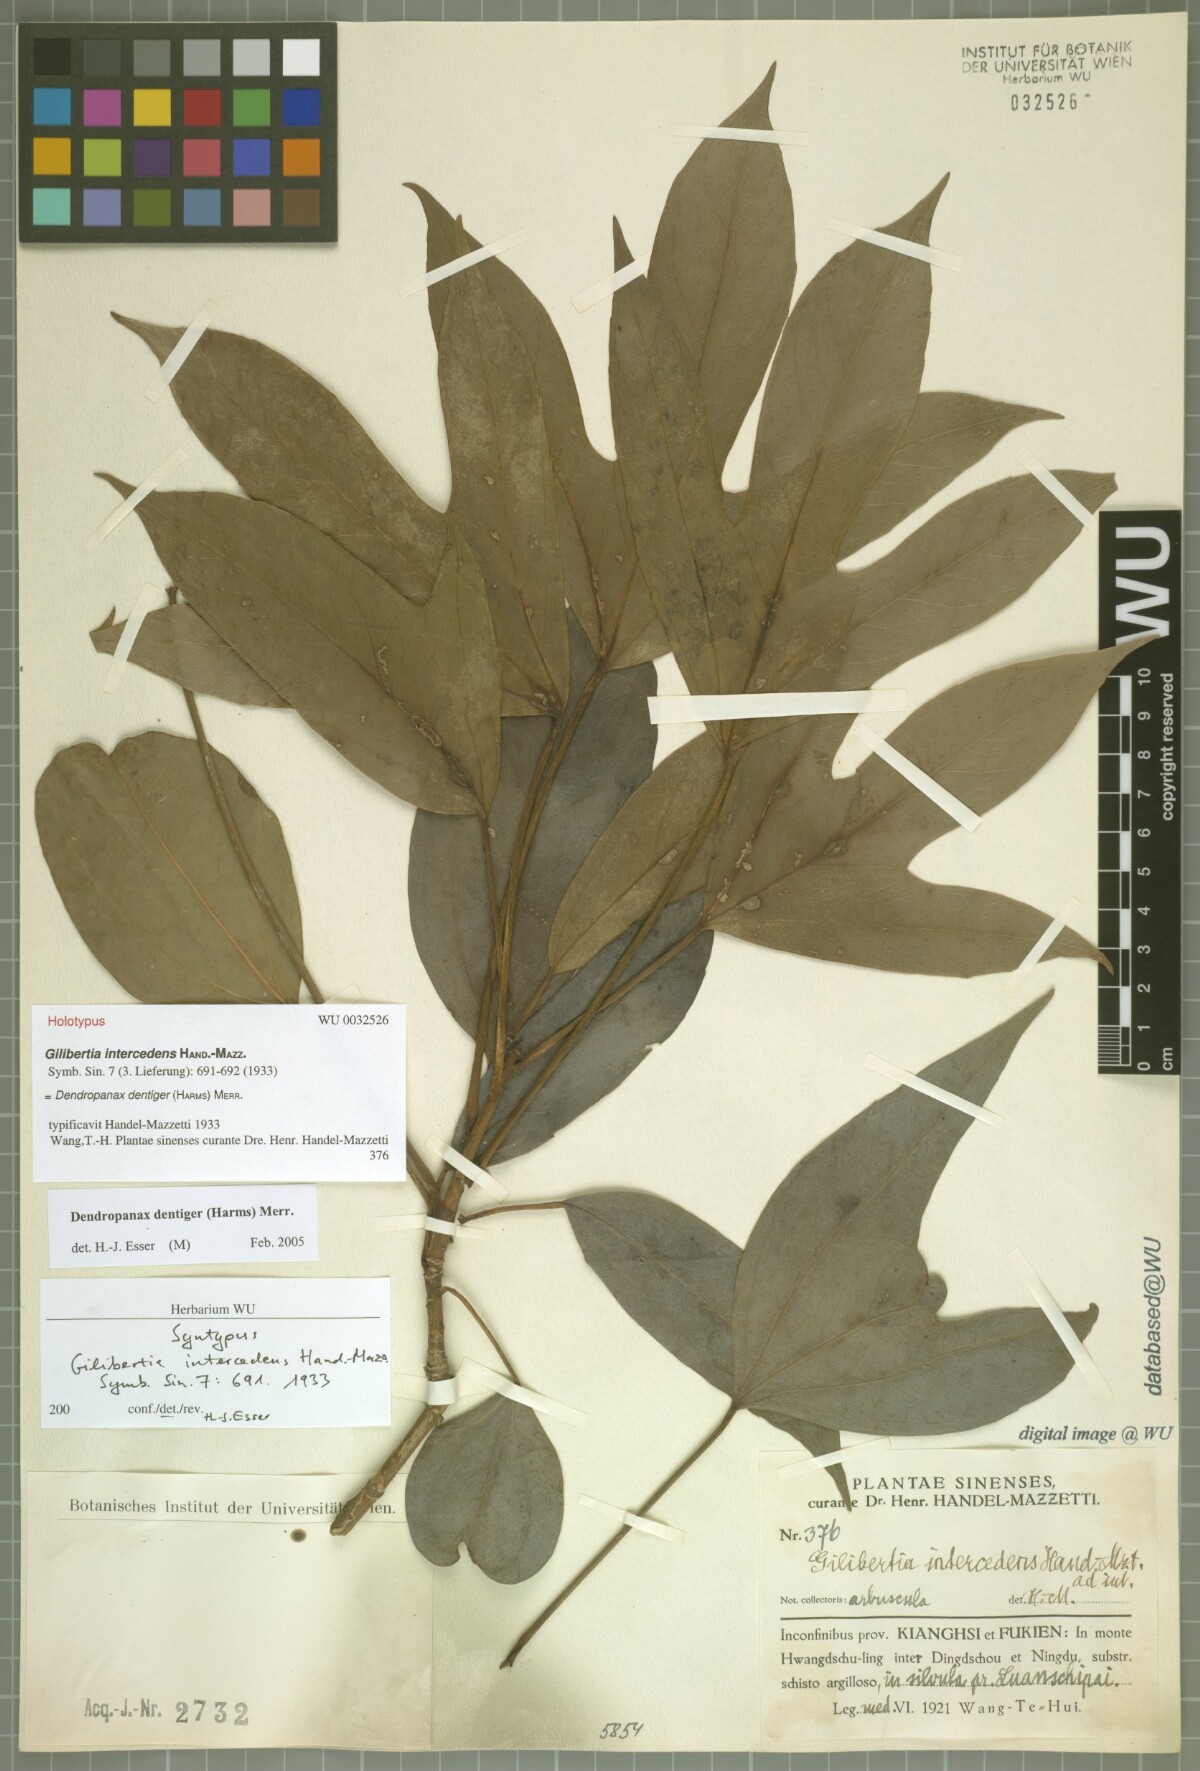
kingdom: Plantae
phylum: Tracheophyta
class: Magnoliopsida
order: Apiales
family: Araliaceae
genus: Dendropanax
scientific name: Dendropanax dentigerus
